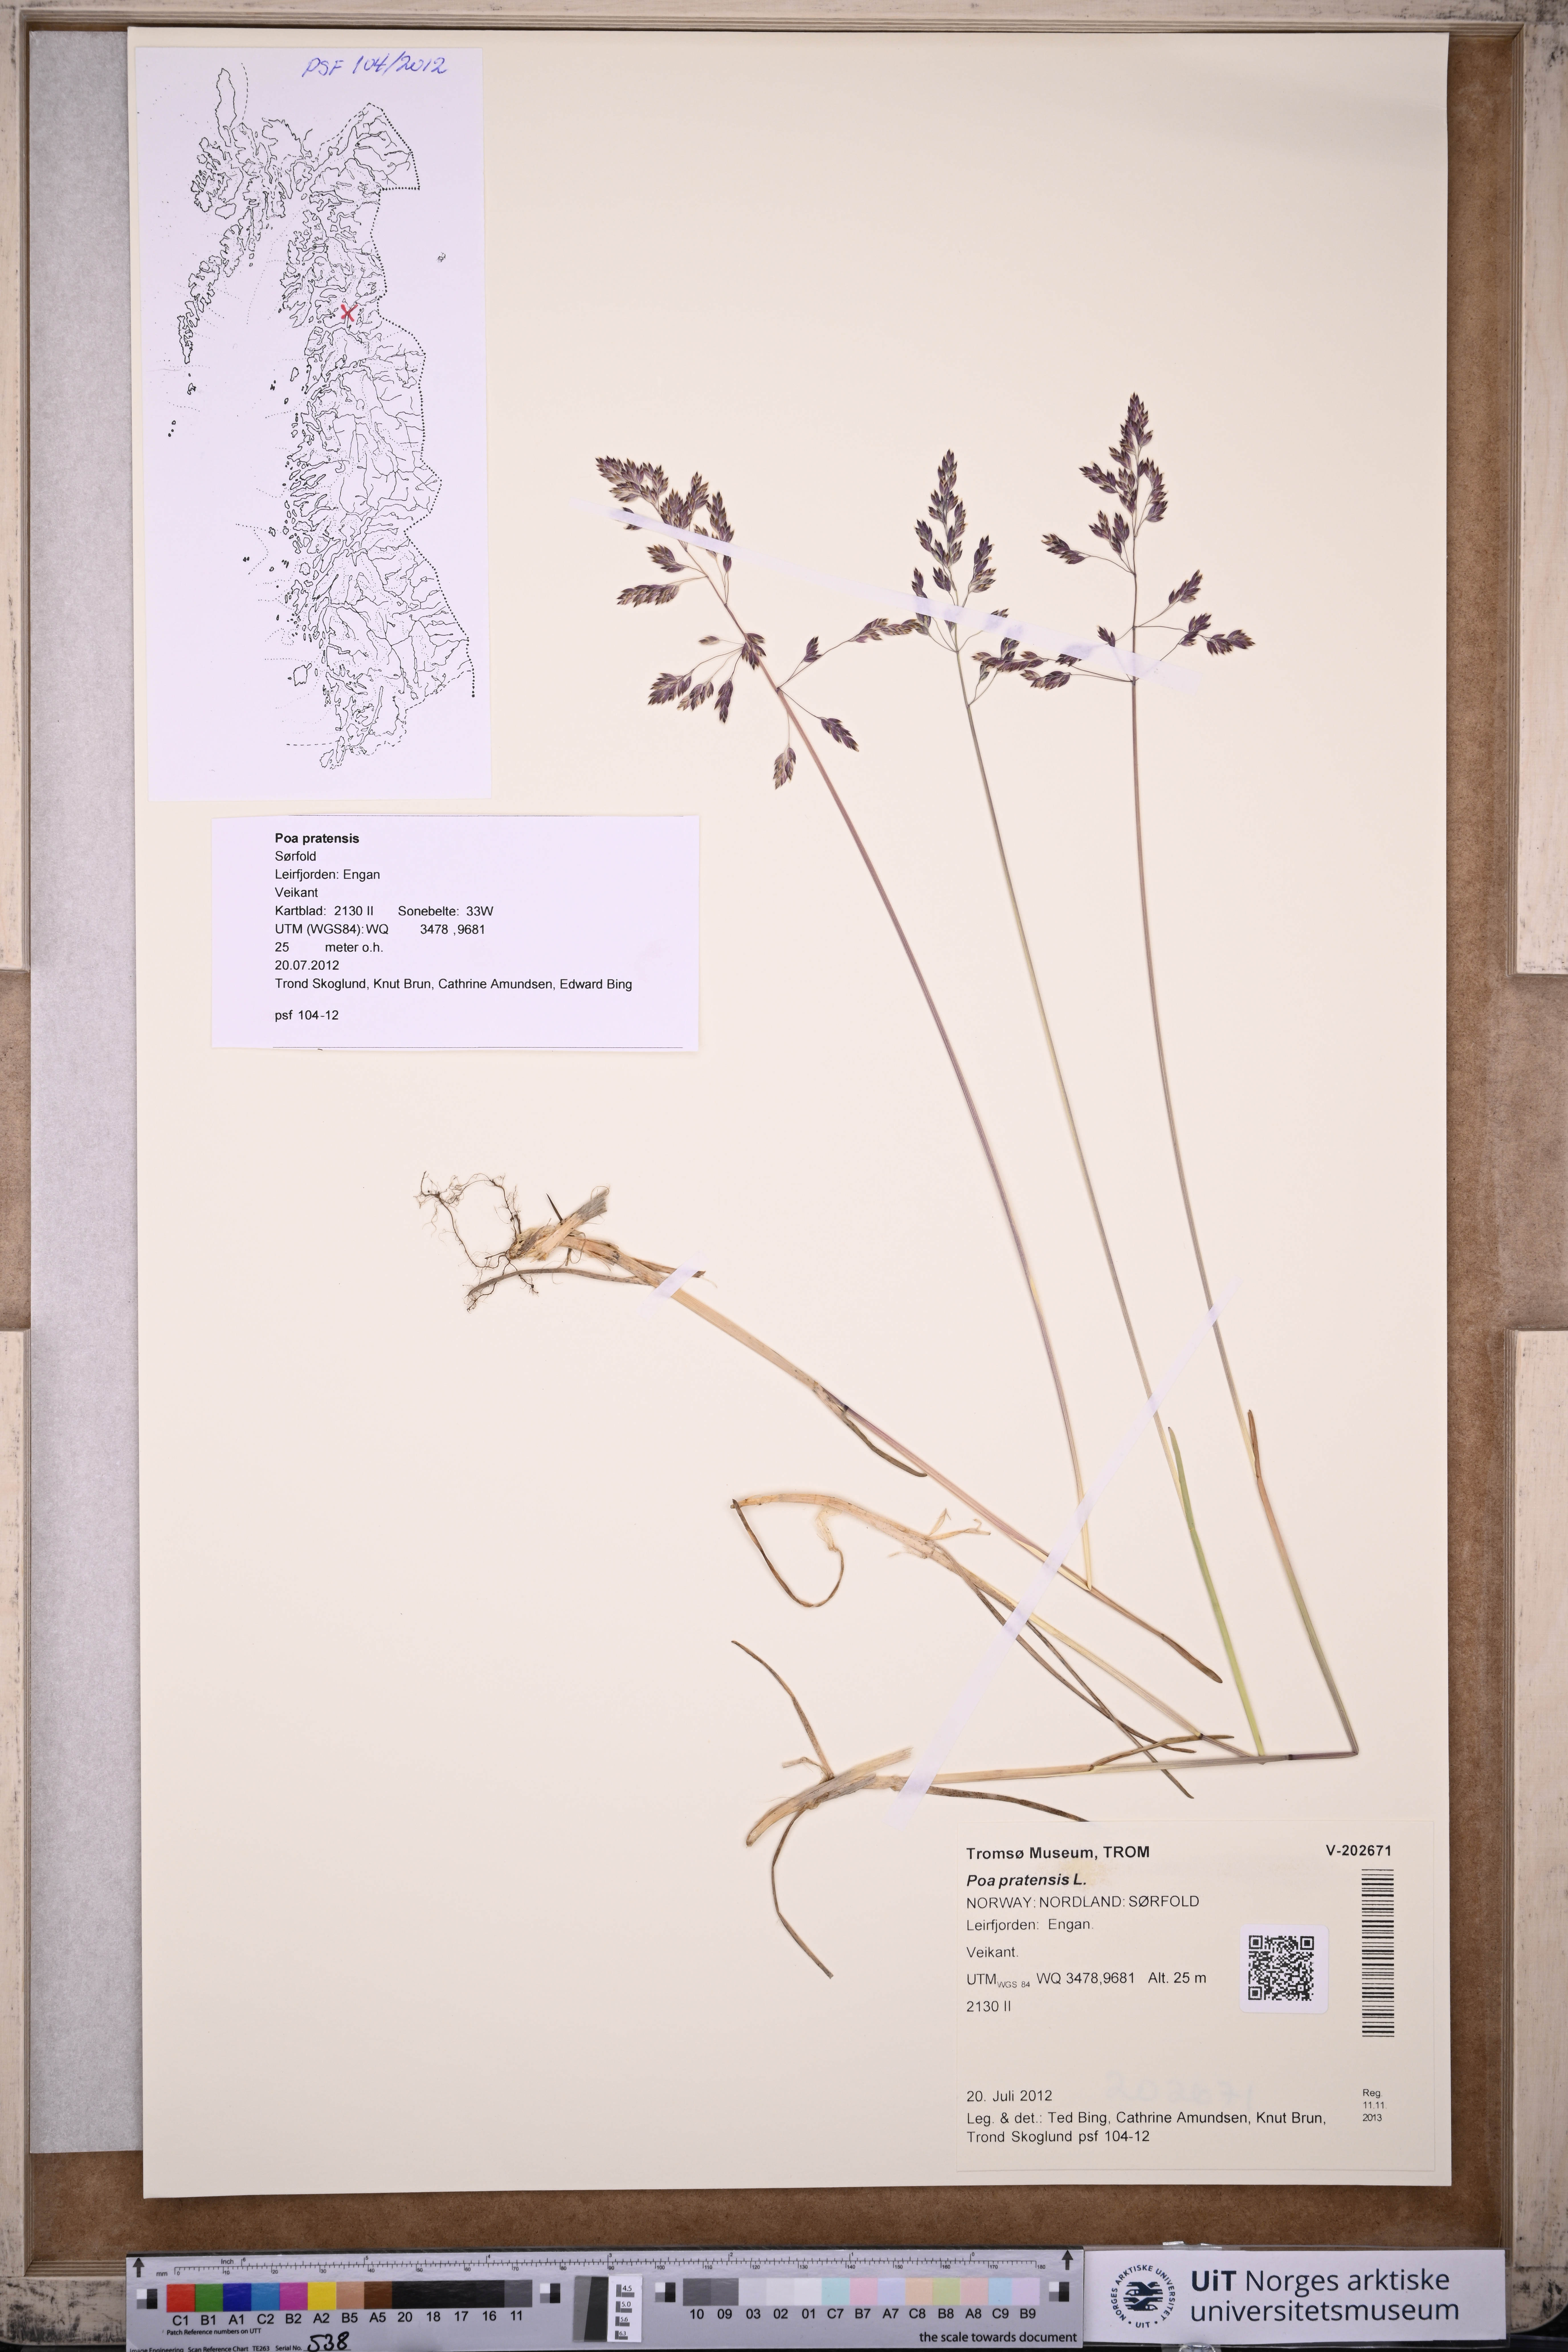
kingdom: Plantae
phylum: Tracheophyta
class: Liliopsida
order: Poales
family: Poaceae
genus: Poa
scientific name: Poa pratensis
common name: Kentucky bluegrass
